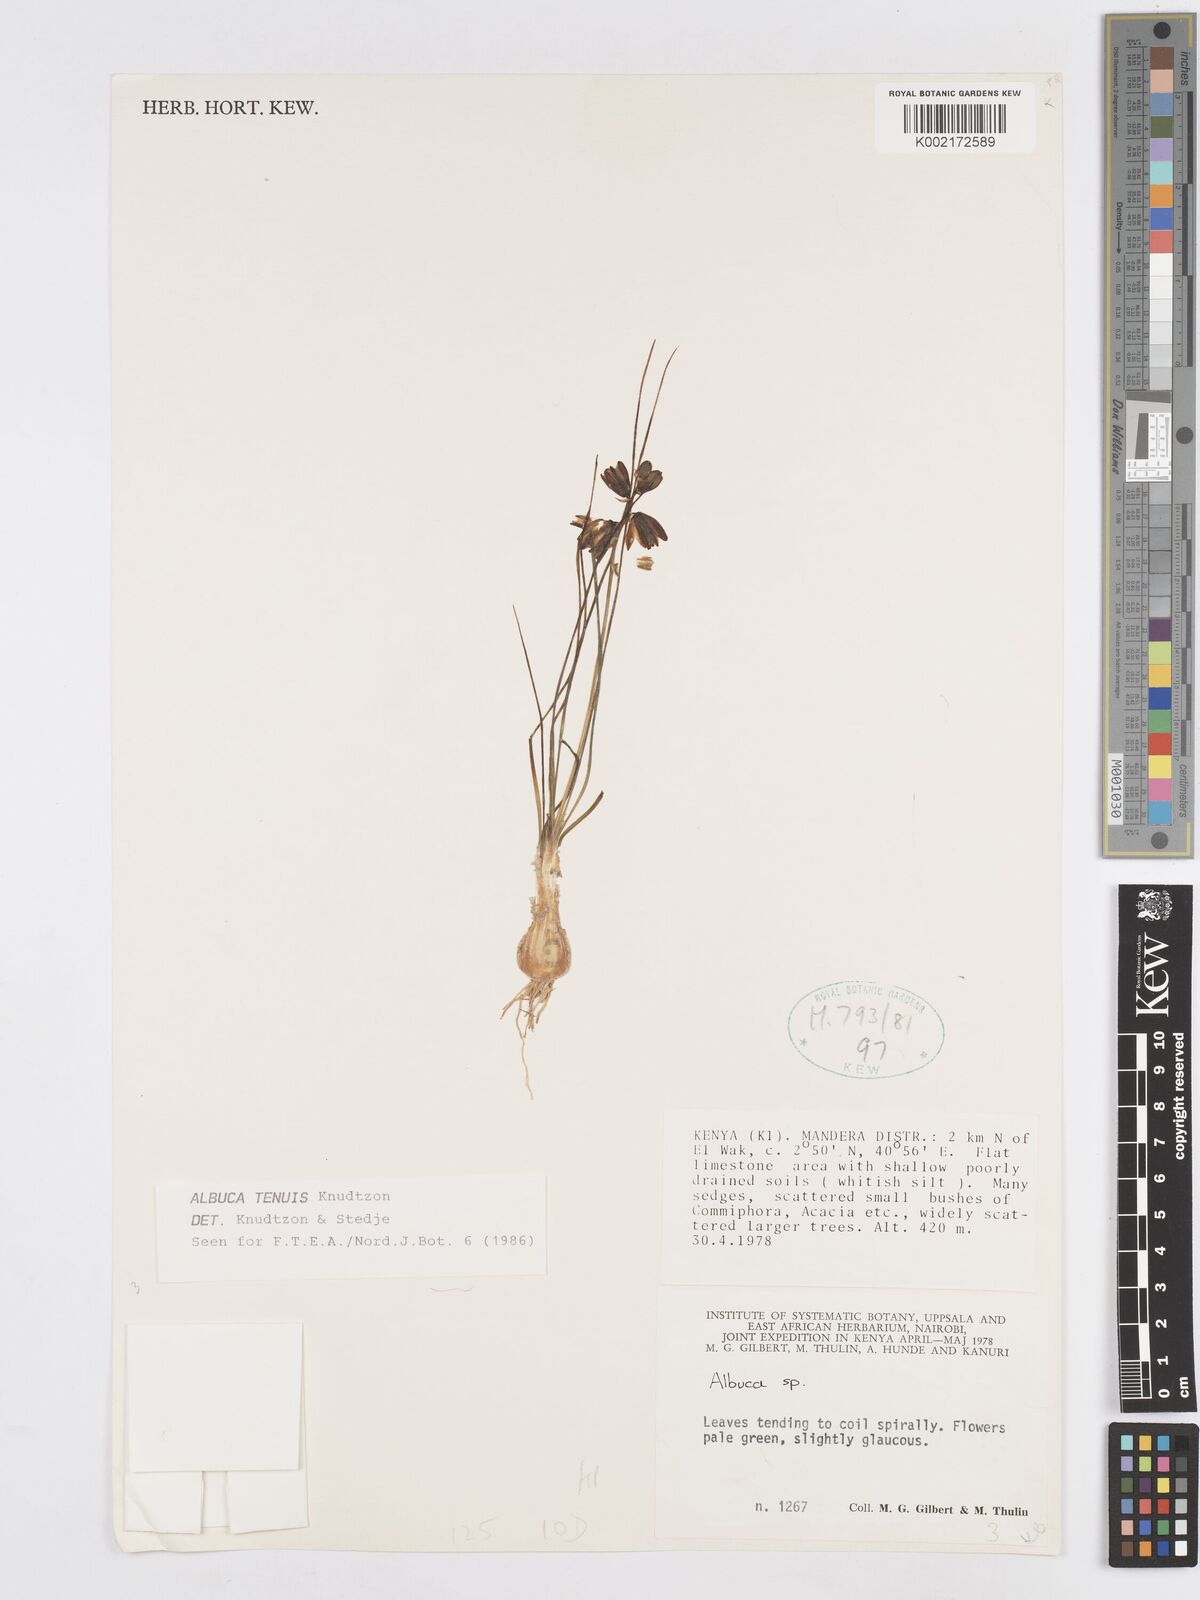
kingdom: Plantae
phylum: Tracheophyta
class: Liliopsida
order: Asparagales
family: Asparagaceae
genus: Albuca
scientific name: Albuca tenuis
